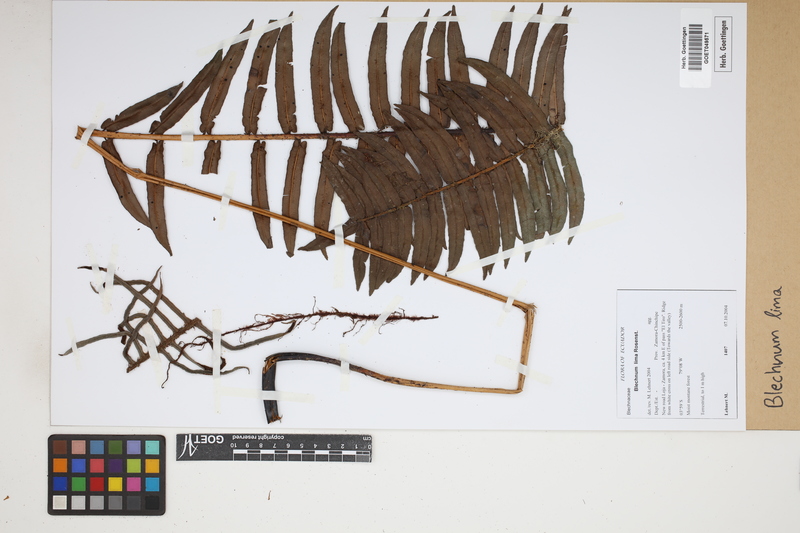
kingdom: Plantae
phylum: Tracheophyta
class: Polypodiopsida
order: Polypodiales
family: Blechnaceae
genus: Parablechnum
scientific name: Parablechnum lima
